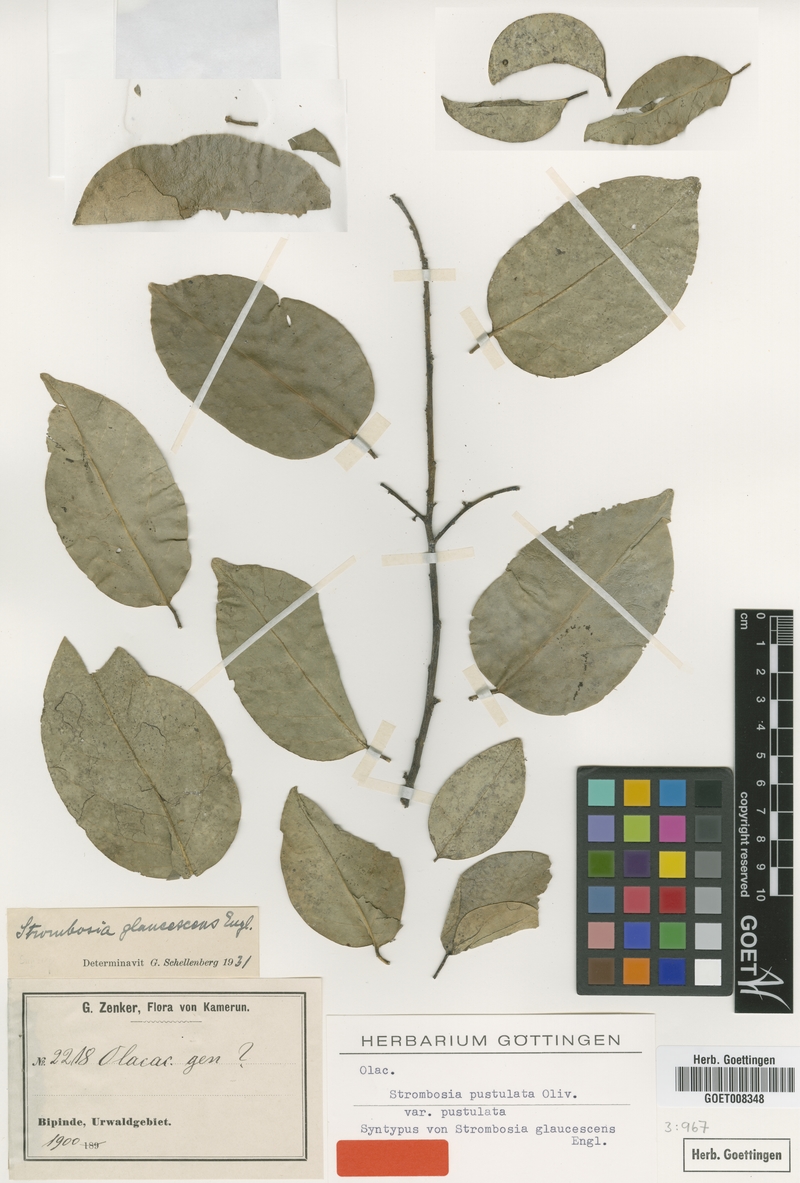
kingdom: Plantae
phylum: Tracheophyta
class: Magnoliopsida
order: Santalales
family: Strombosiaceae
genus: Strombosia
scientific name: Strombosia pustulata
